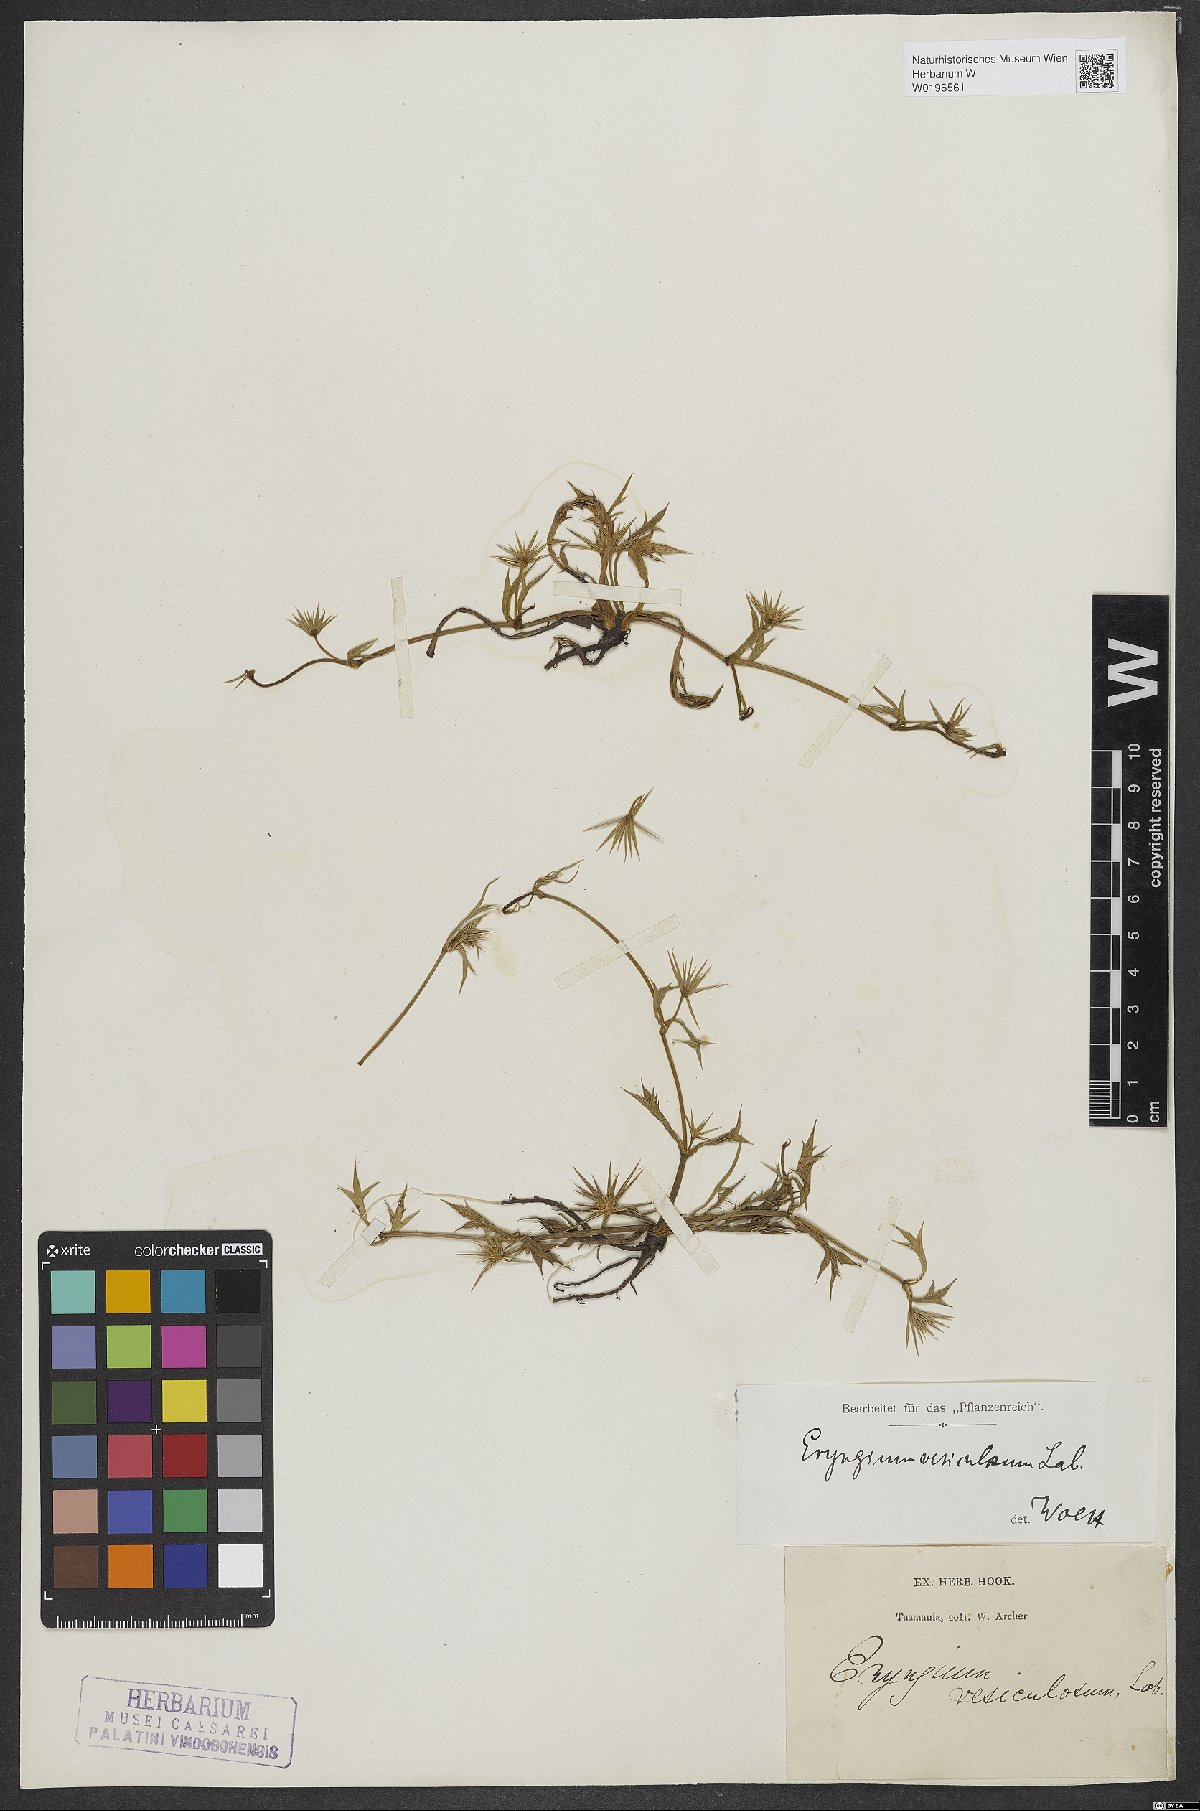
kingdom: Plantae
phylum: Tracheophyta
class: Magnoliopsida
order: Apiales
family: Apiaceae
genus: Eryngium
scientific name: Eryngium vesiculosum
